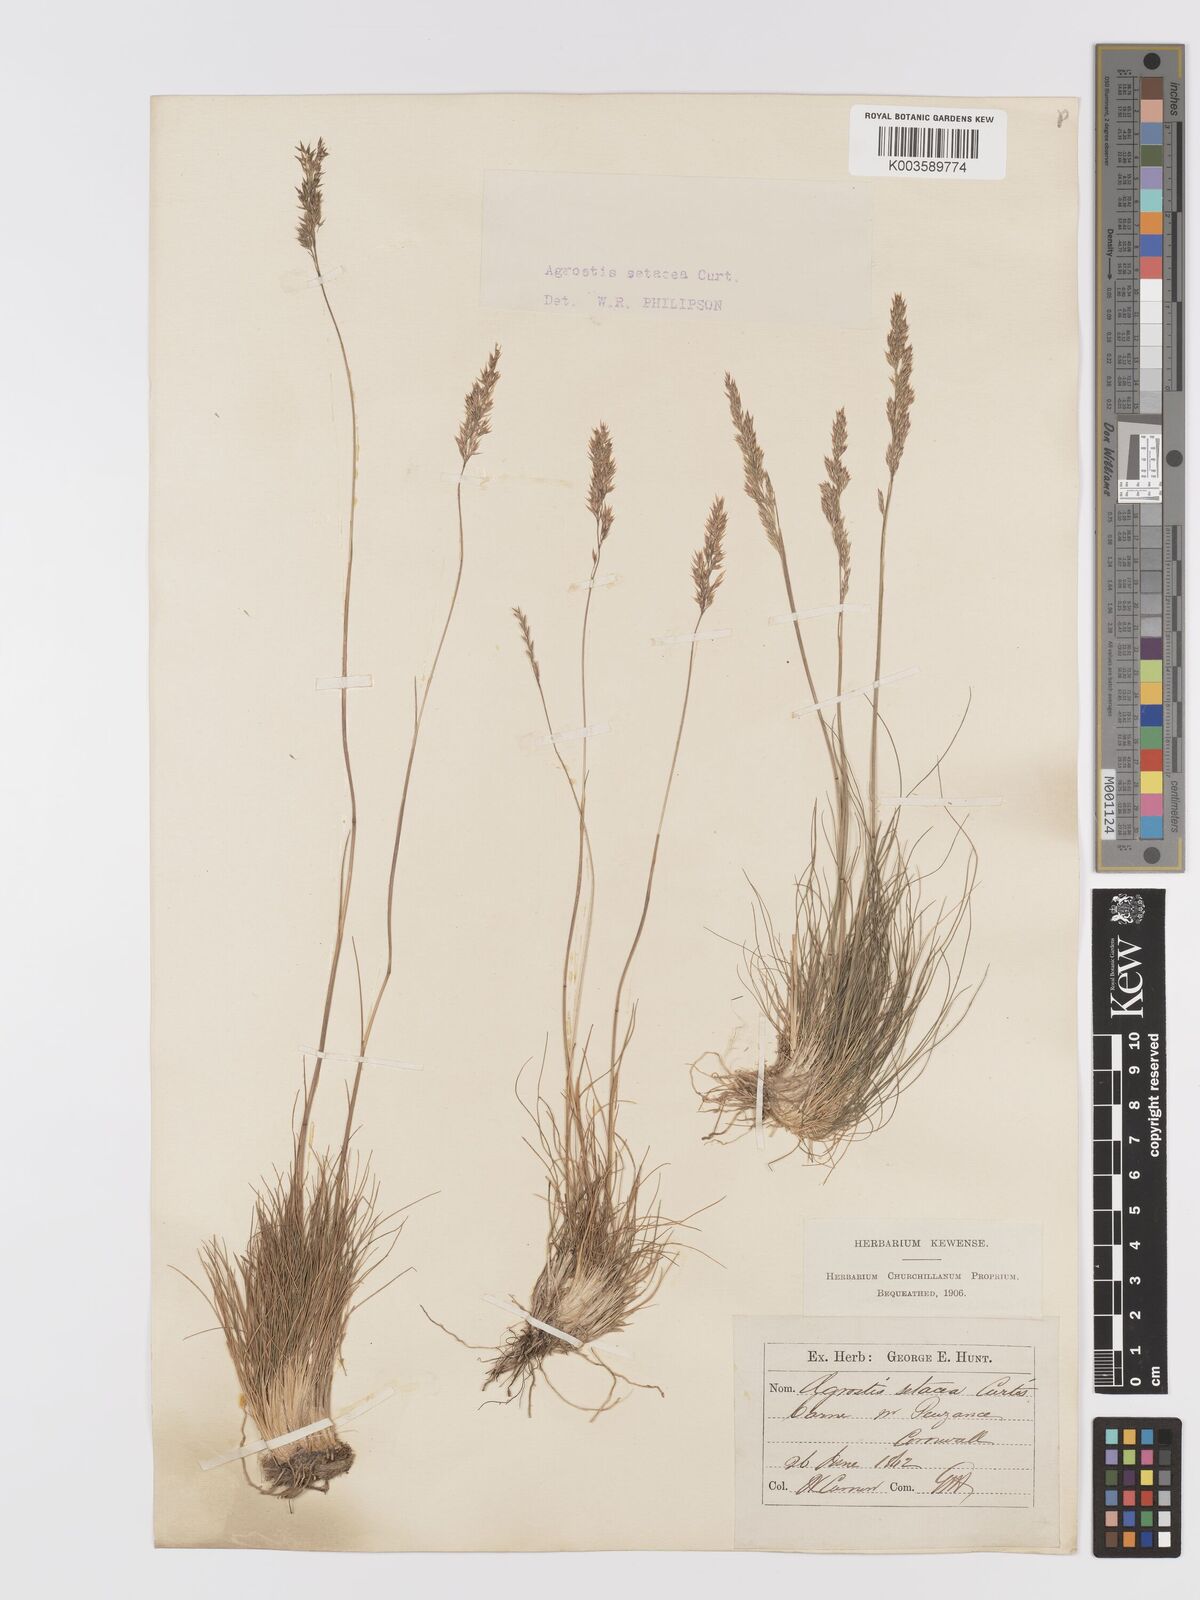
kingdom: Plantae
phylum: Tracheophyta
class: Liliopsida
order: Poales
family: Poaceae
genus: Alpagrostis
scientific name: Alpagrostis setacea
